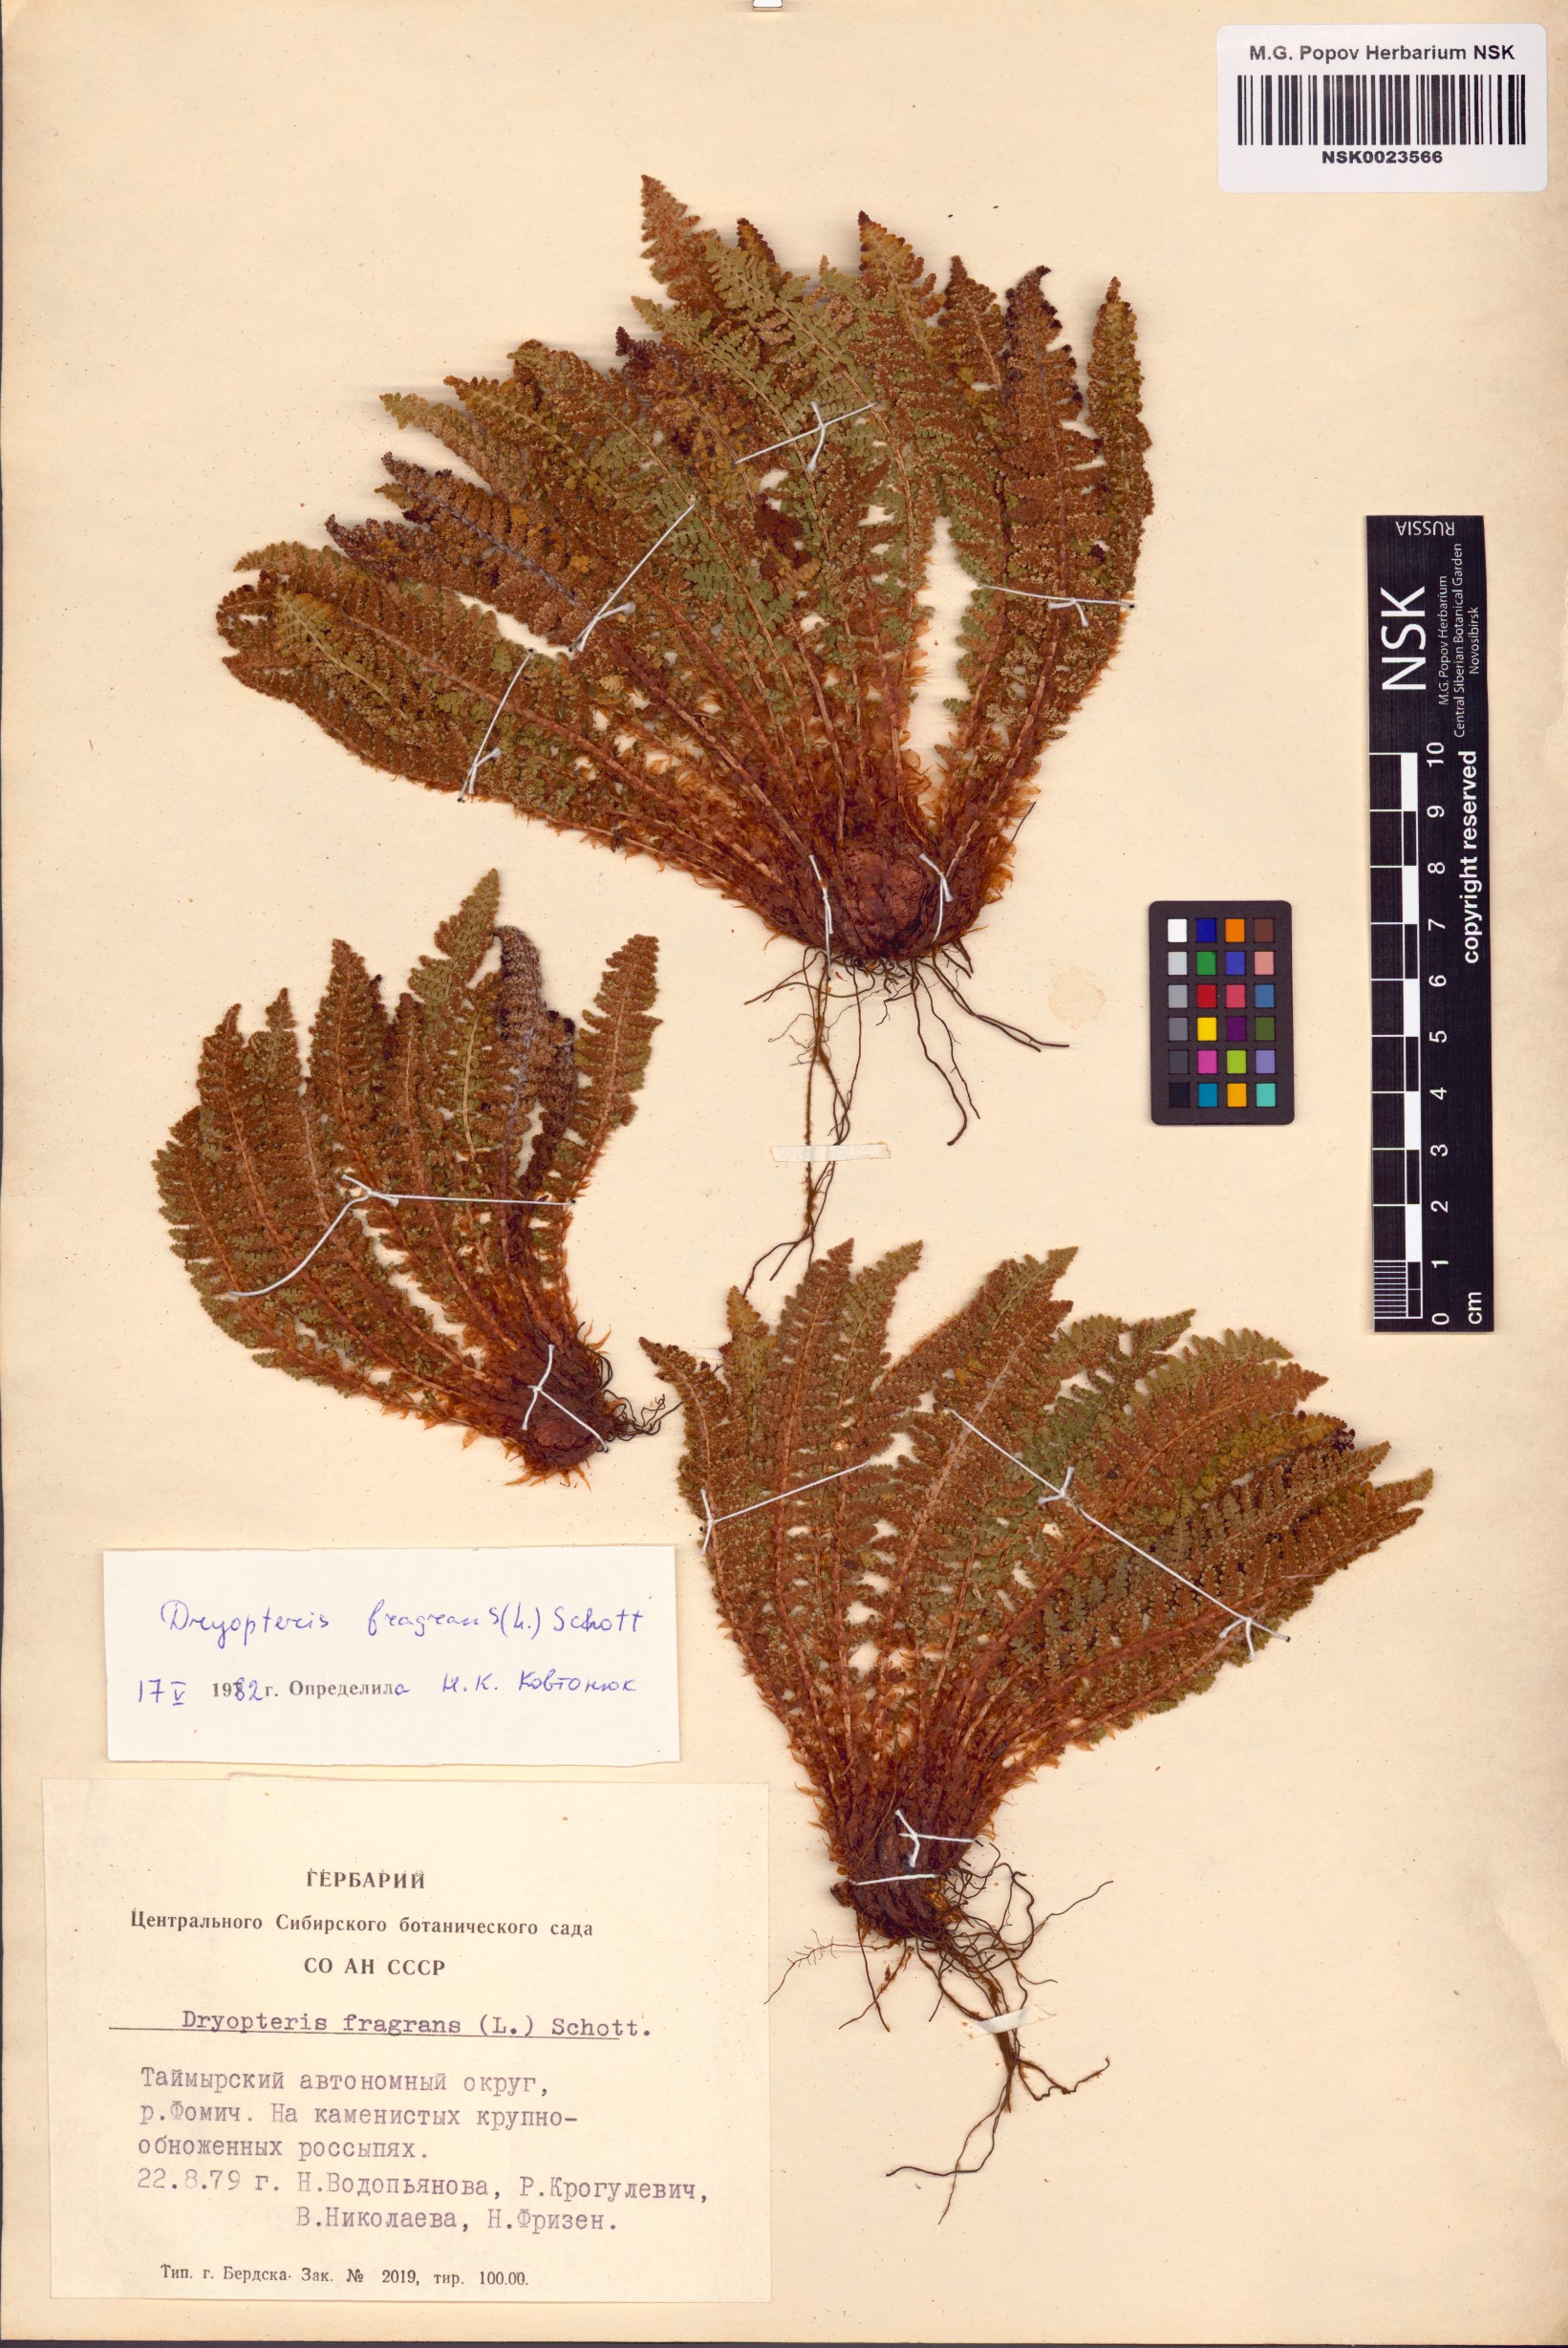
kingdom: Plantae
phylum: Tracheophyta
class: Polypodiopsida
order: Polypodiales
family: Dryopteridaceae
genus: Dryopteris
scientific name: Dryopteris fragrans
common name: Fragrant wood fern
